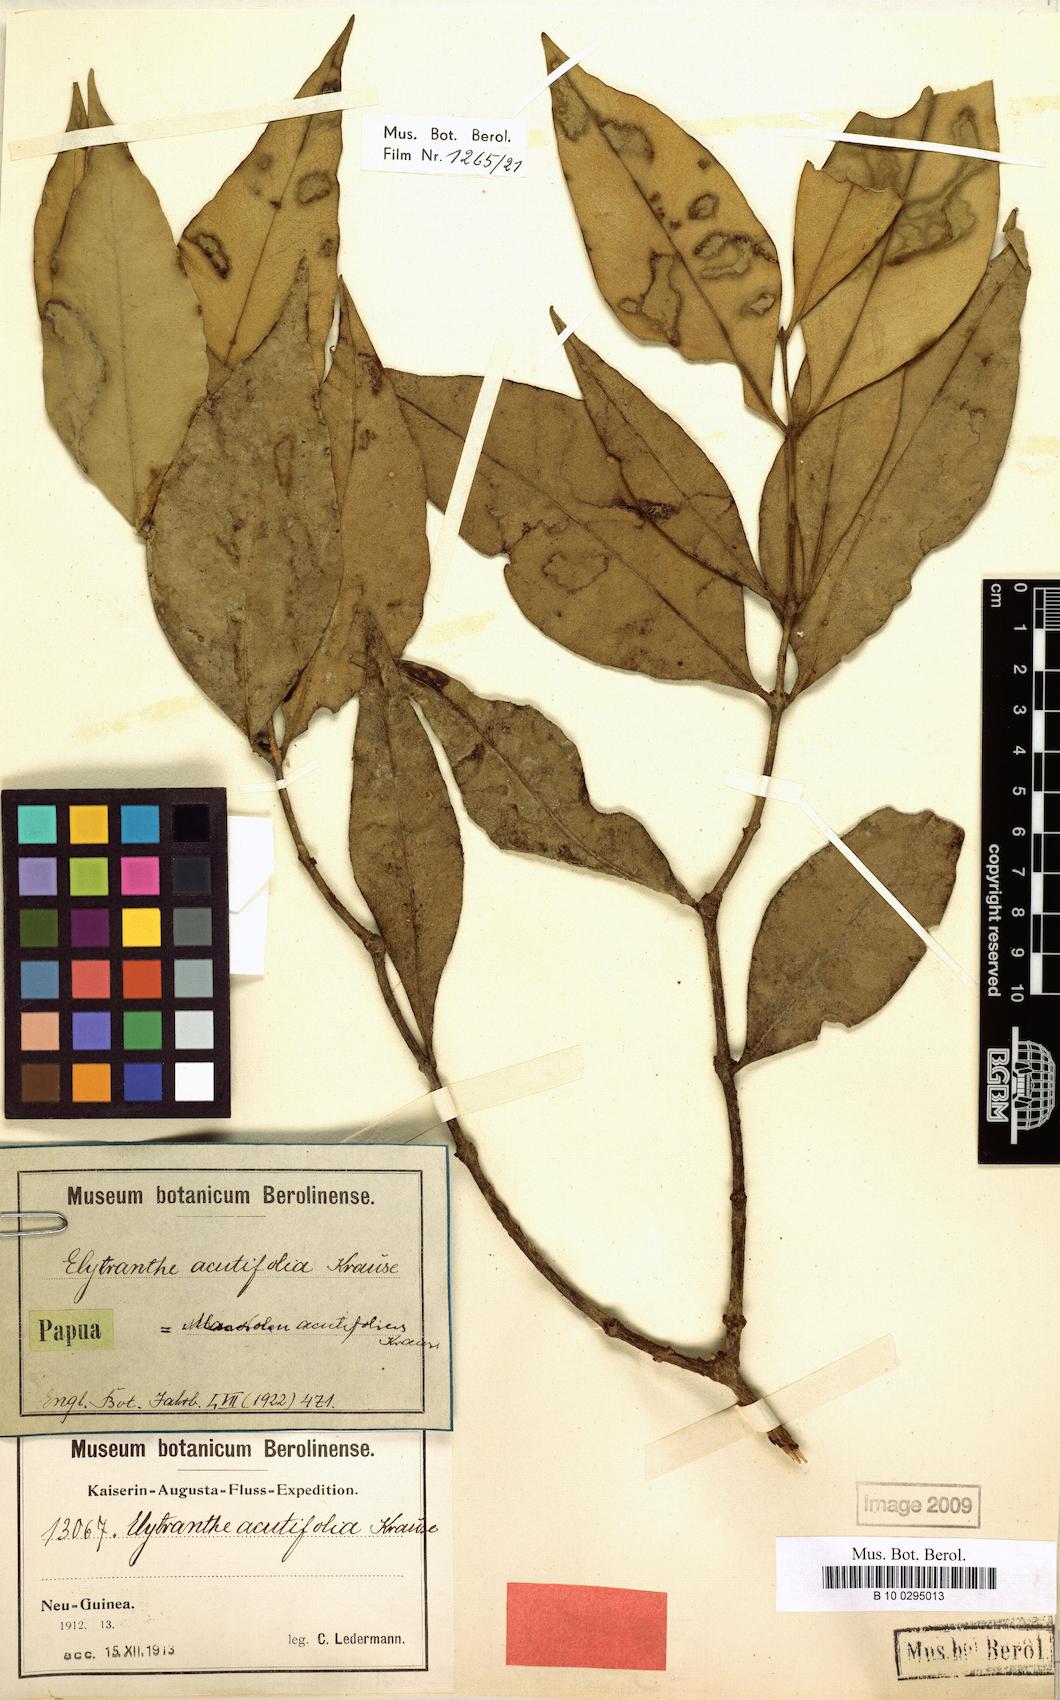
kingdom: Plantae
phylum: Tracheophyta
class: Magnoliopsida
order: Santalales
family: Loranthaceae
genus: Macrosolen
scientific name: Macrosolen cochinchinensis
